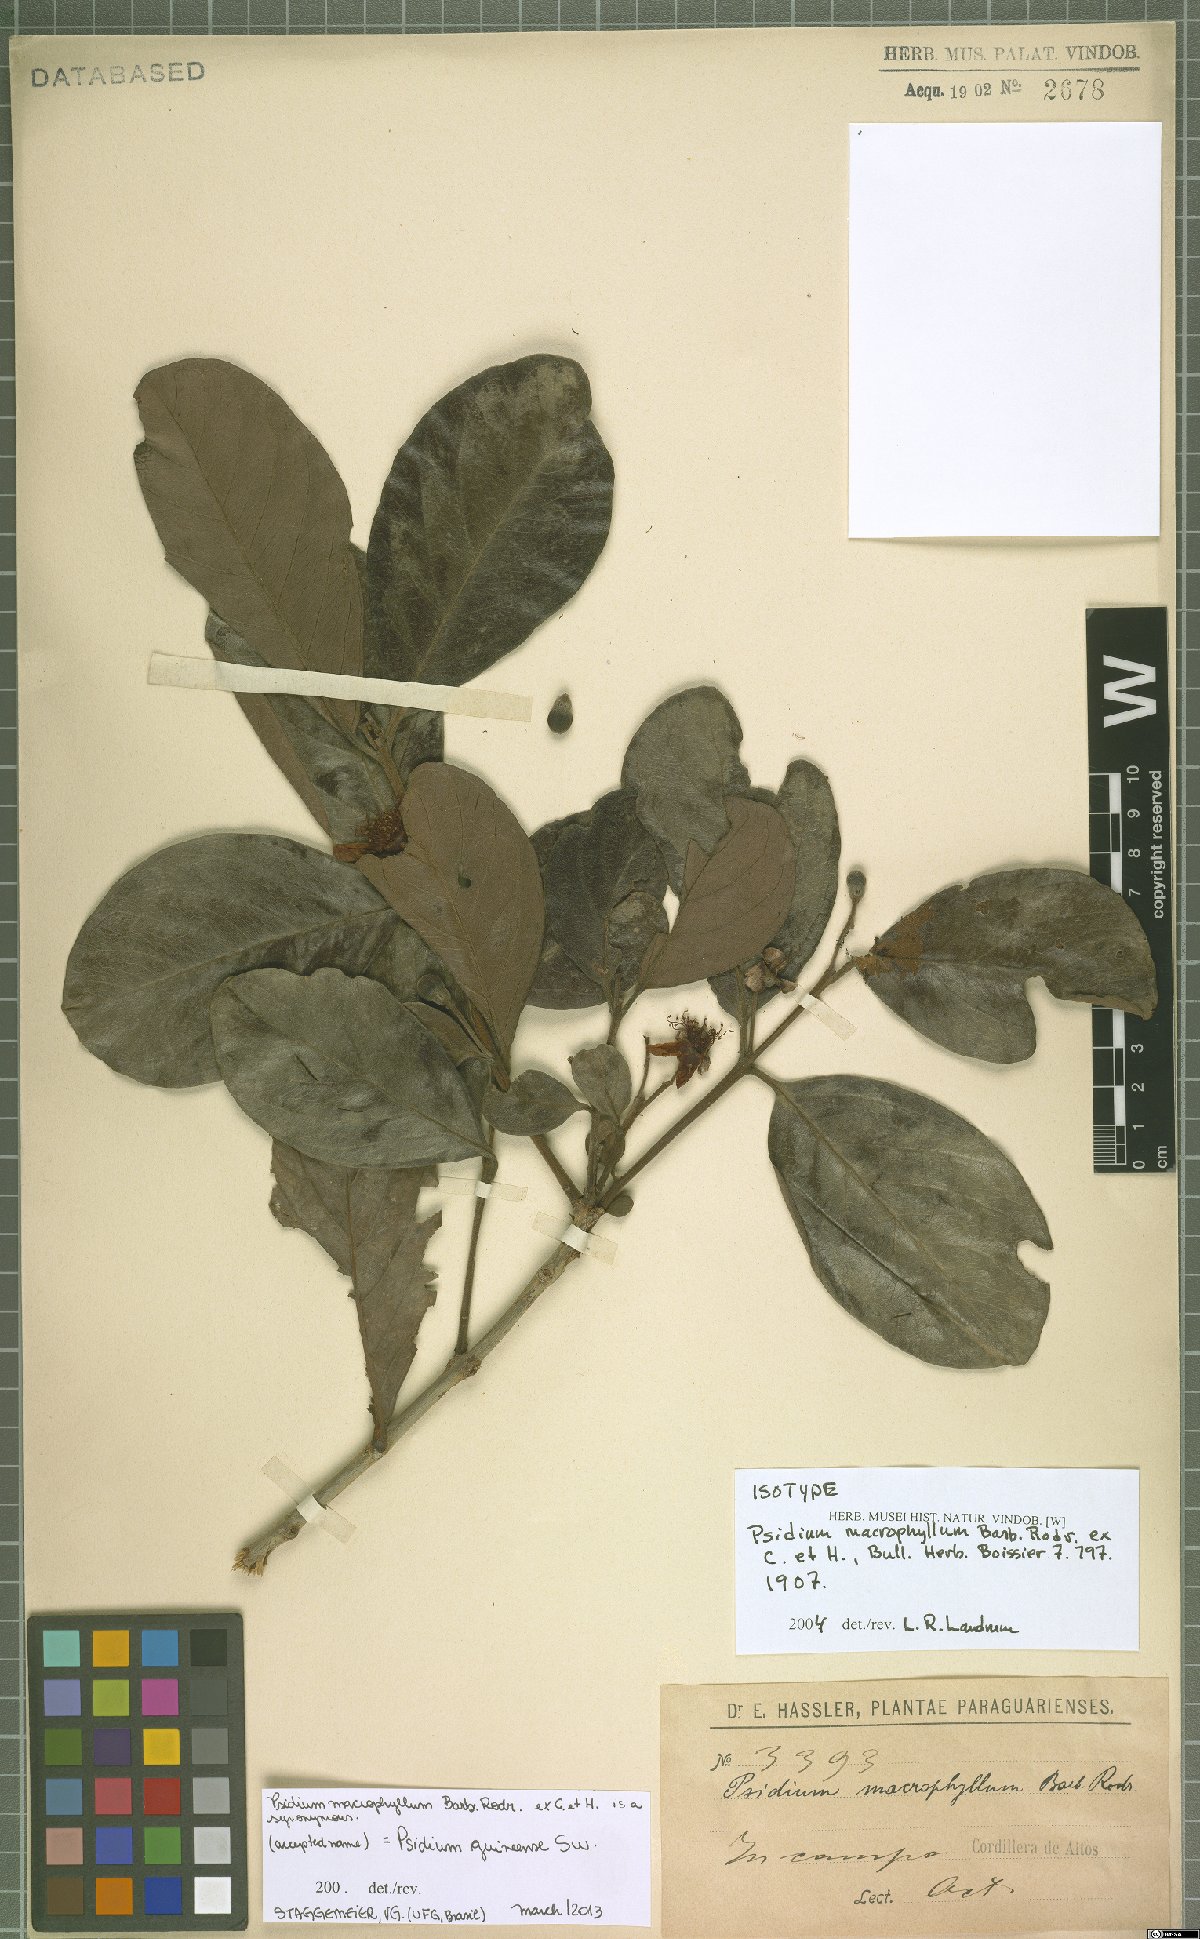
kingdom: Plantae
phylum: Tracheophyta
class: Magnoliopsida
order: Myrtales
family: Myrtaceae
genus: Psidium
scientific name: Psidium guineense
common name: Brazilian guava
